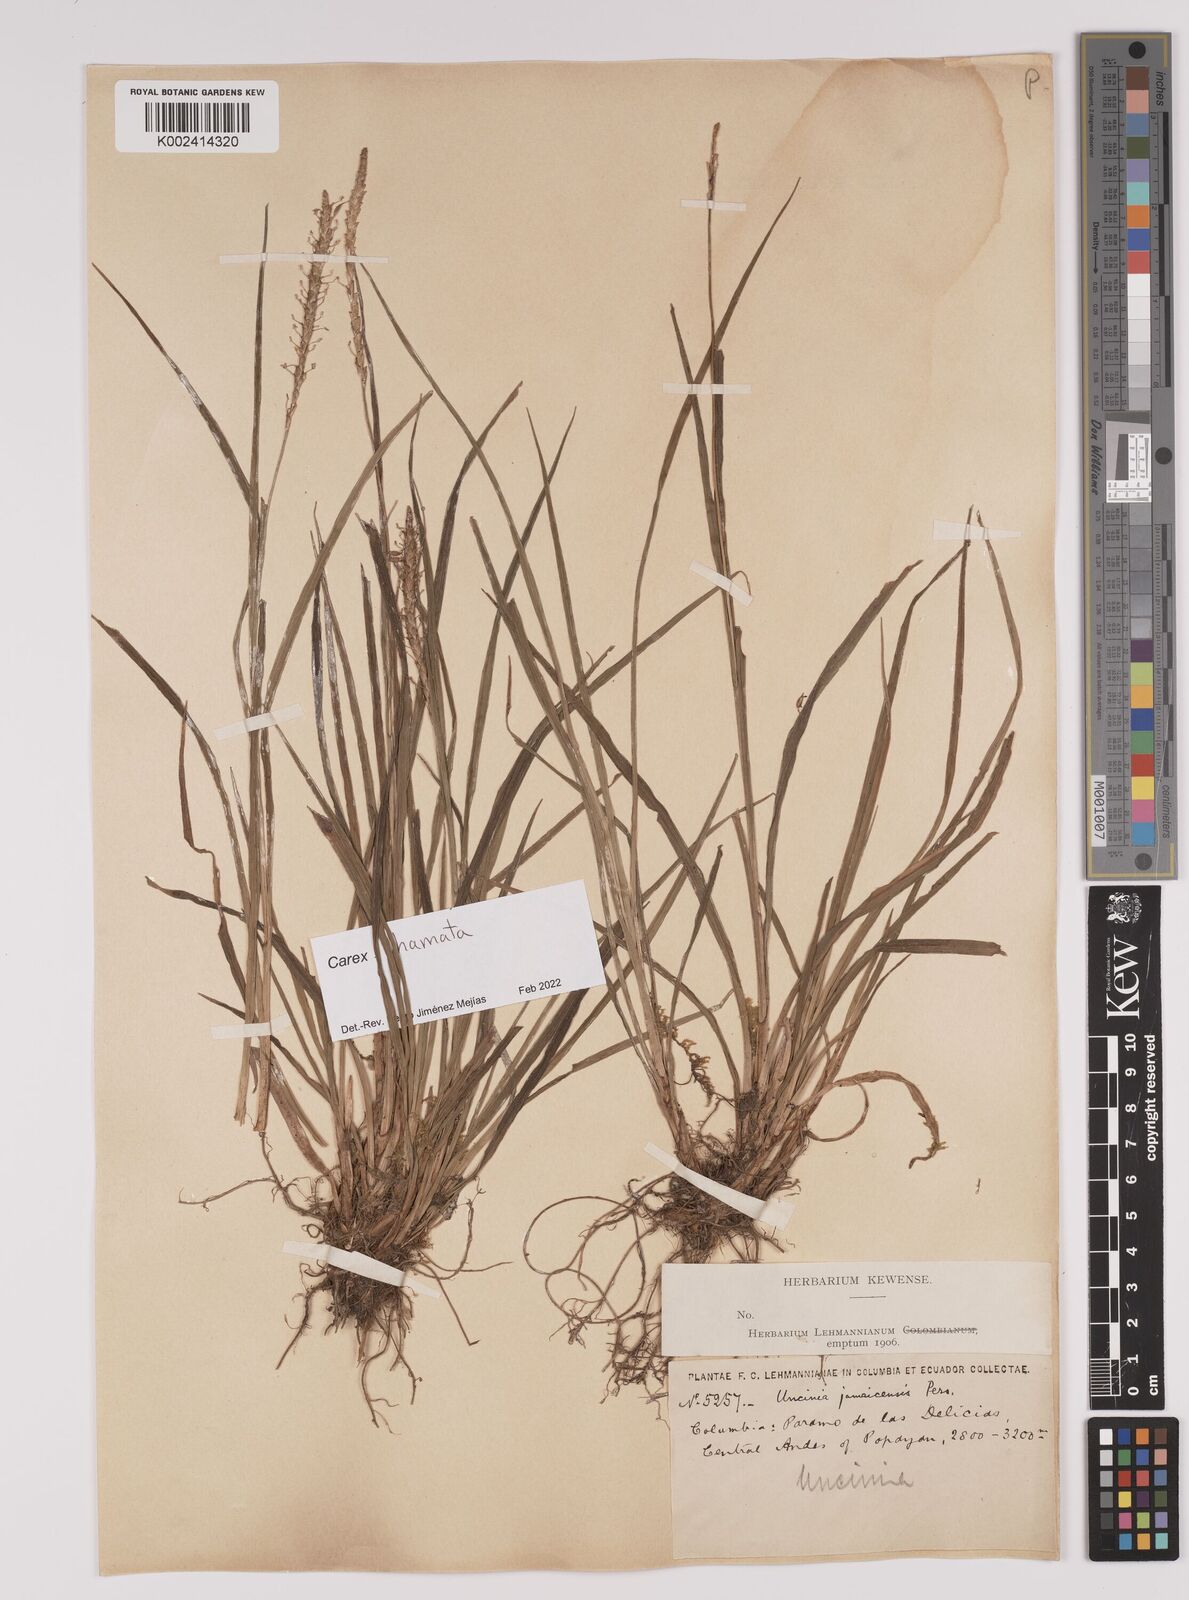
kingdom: Plantae
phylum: Tracheophyta
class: Liliopsida
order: Poales
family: Cyperaceae
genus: Carex
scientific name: Carex hamata
